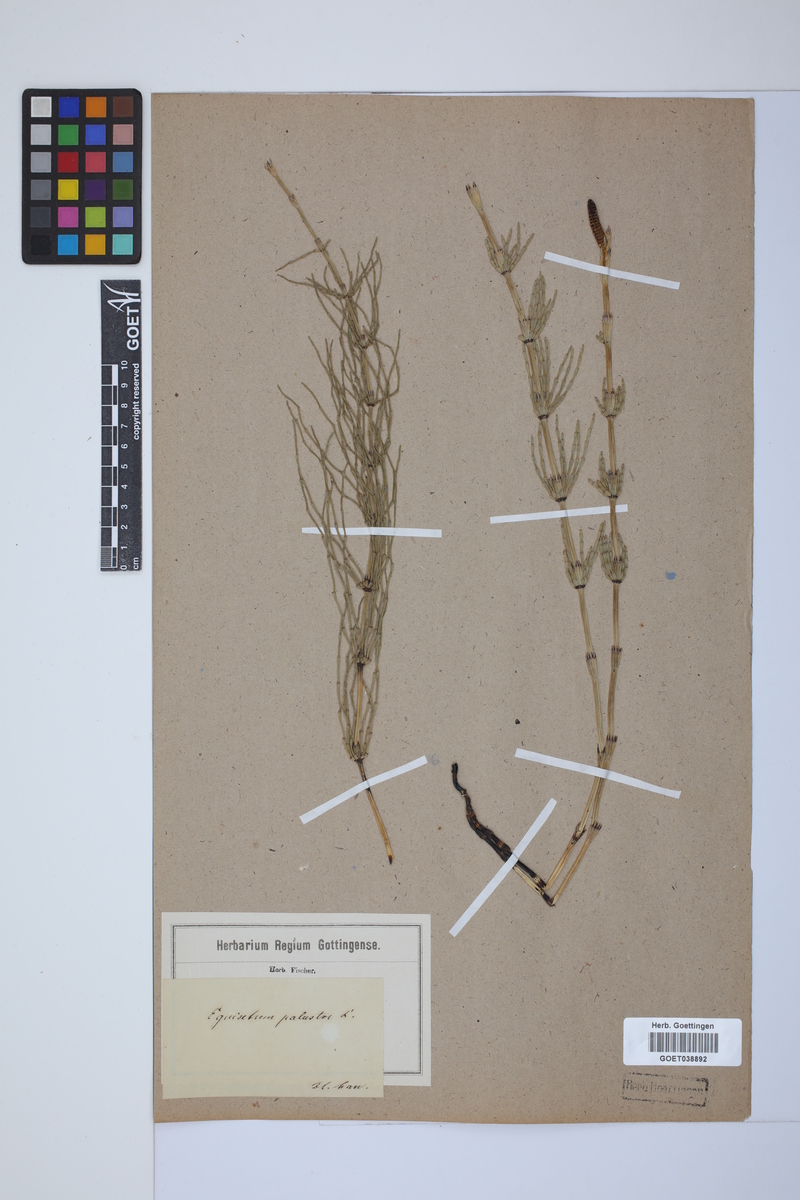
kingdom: Plantae
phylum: Tracheophyta
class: Polypodiopsida
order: Equisetales
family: Equisetaceae
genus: Equisetum
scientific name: Equisetum palustre
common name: Marsh horsetail
